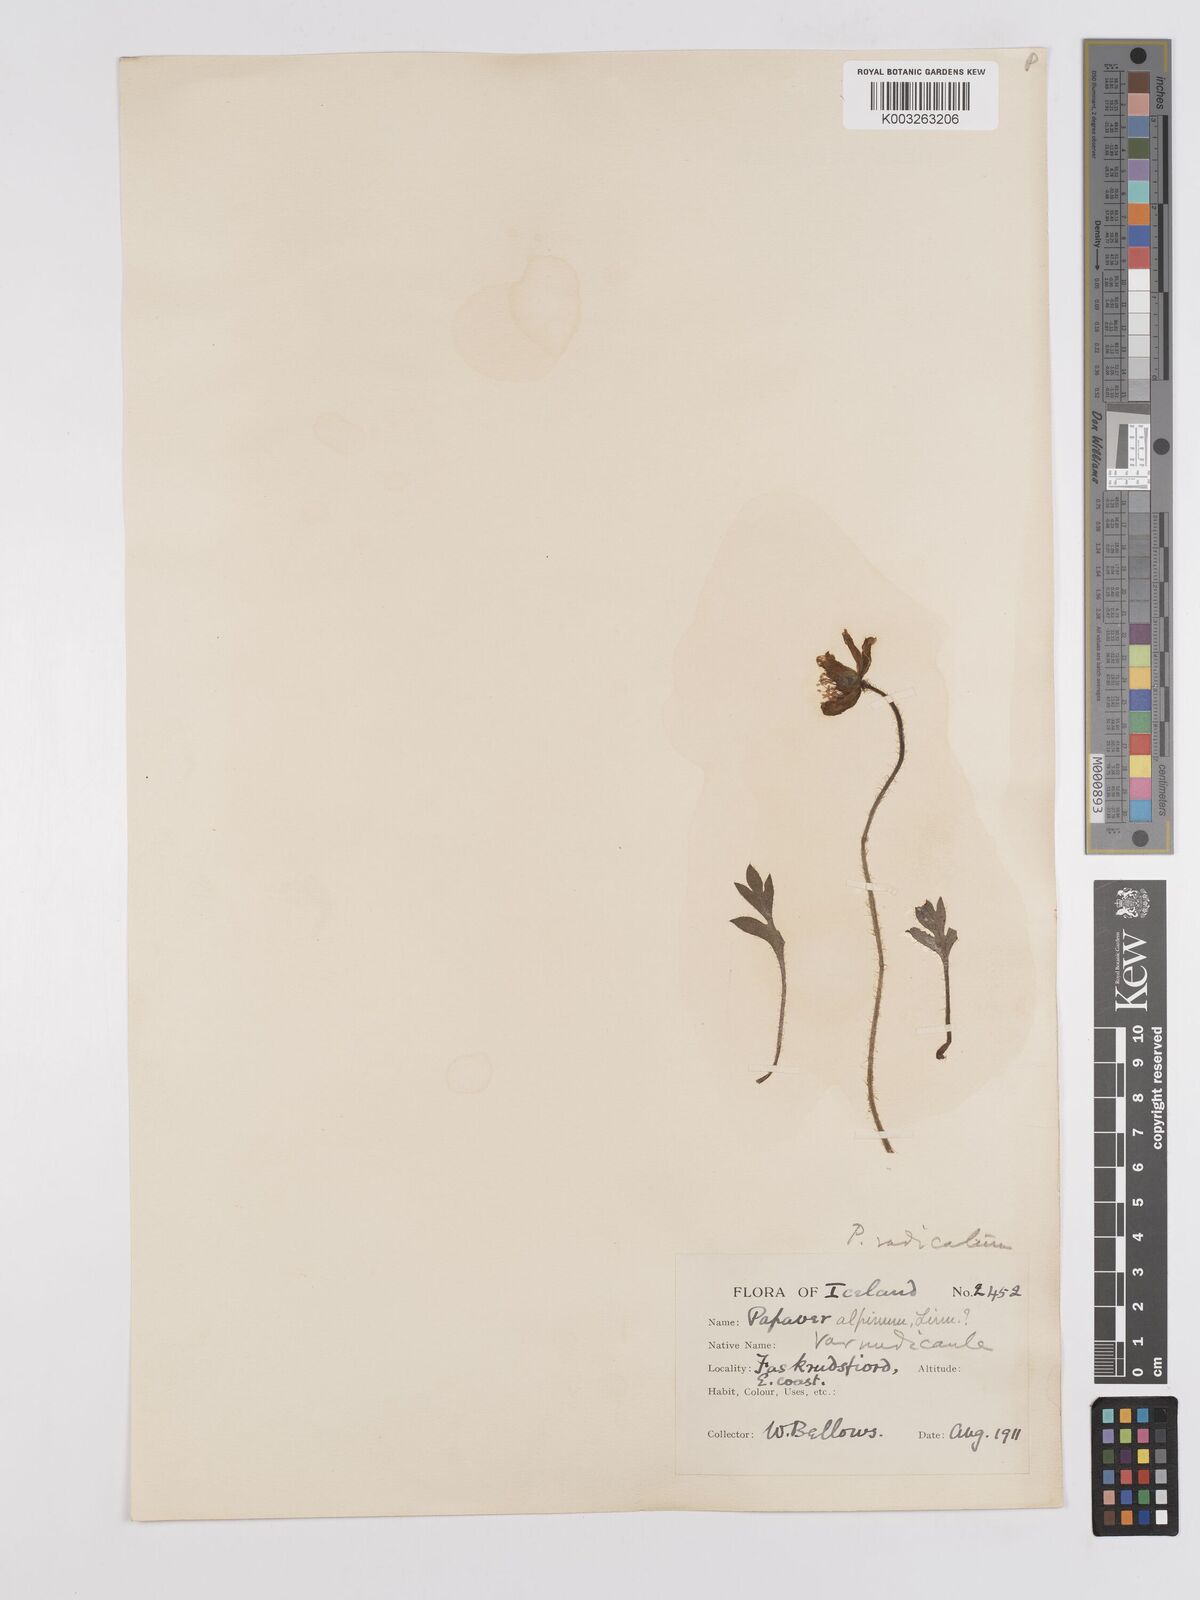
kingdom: Plantae
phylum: Tracheophyta
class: Magnoliopsida
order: Ranunculales
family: Papaveraceae
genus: Papaver
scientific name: Papaver radicatum
